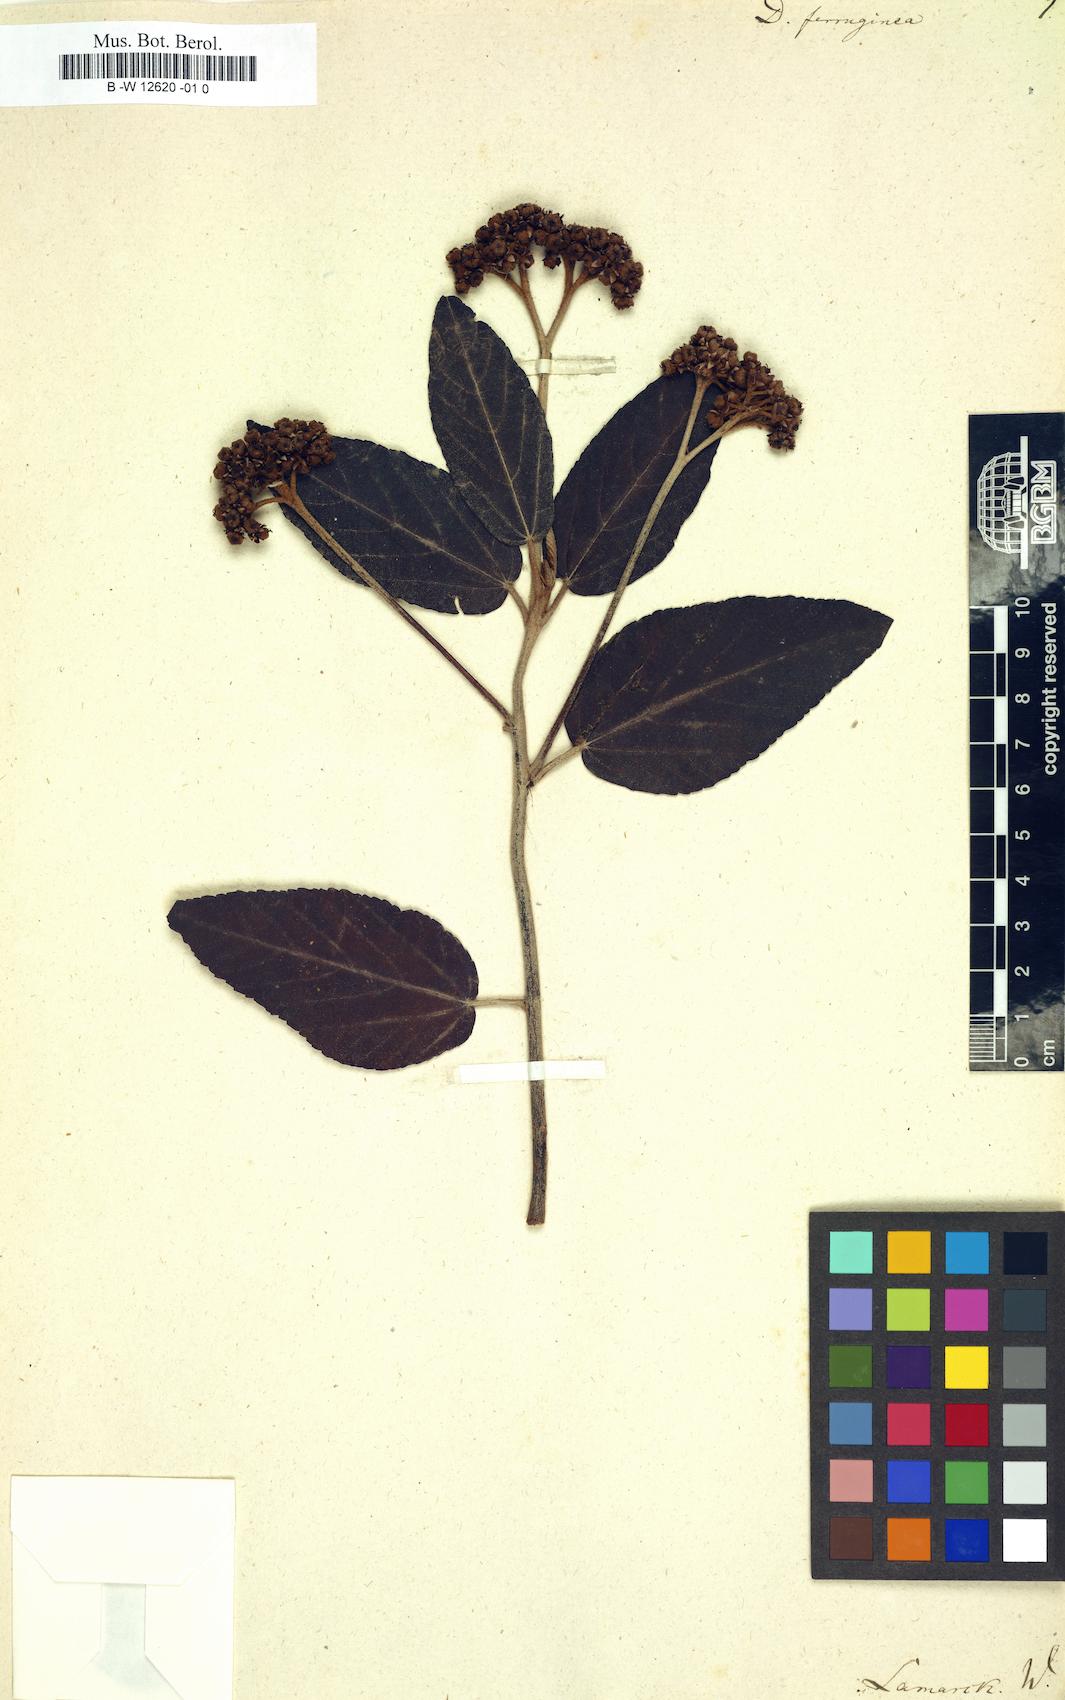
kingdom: Plantae
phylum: Tracheophyta
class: Magnoliopsida
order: Malvales
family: Malvaceae
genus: Ruizia
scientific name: Ruizia ferruginea
